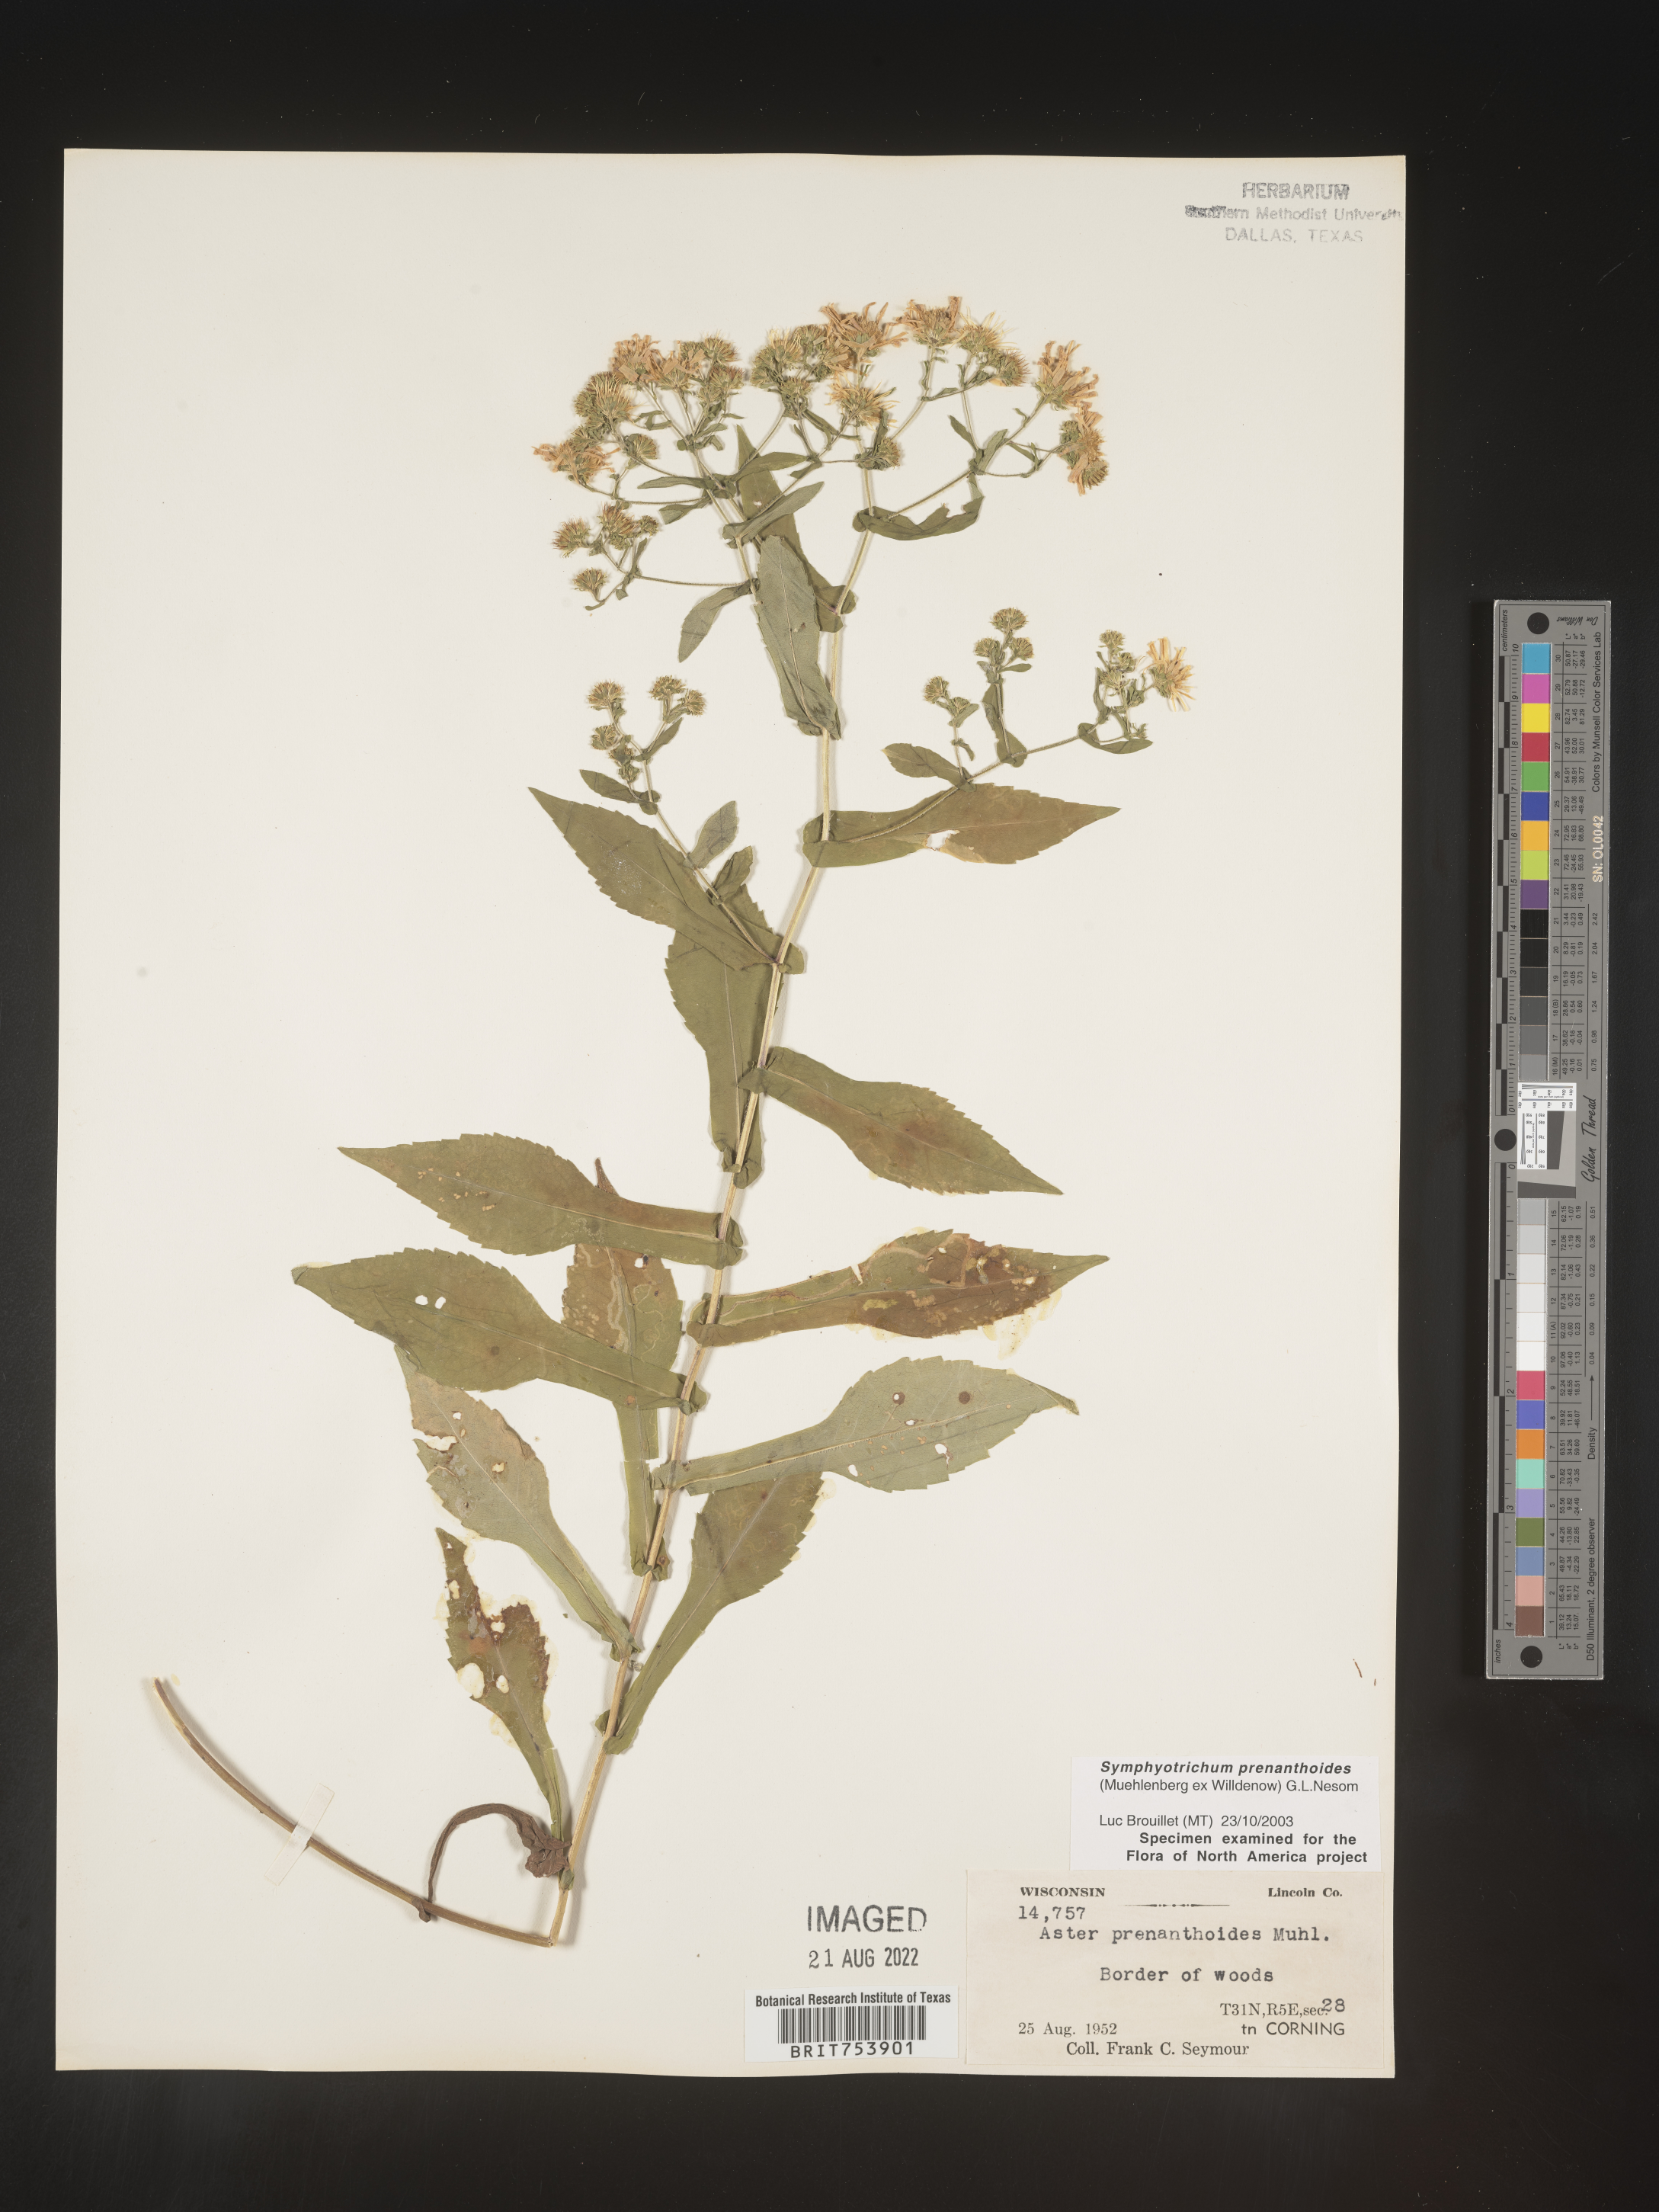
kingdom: Plantae
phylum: Tracheophyta
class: Magnoliopsida
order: Asterales
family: Asteraceae
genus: Symphyotrichum
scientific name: Symphyotrichum prenanthoides
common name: Crooked-stem aster
